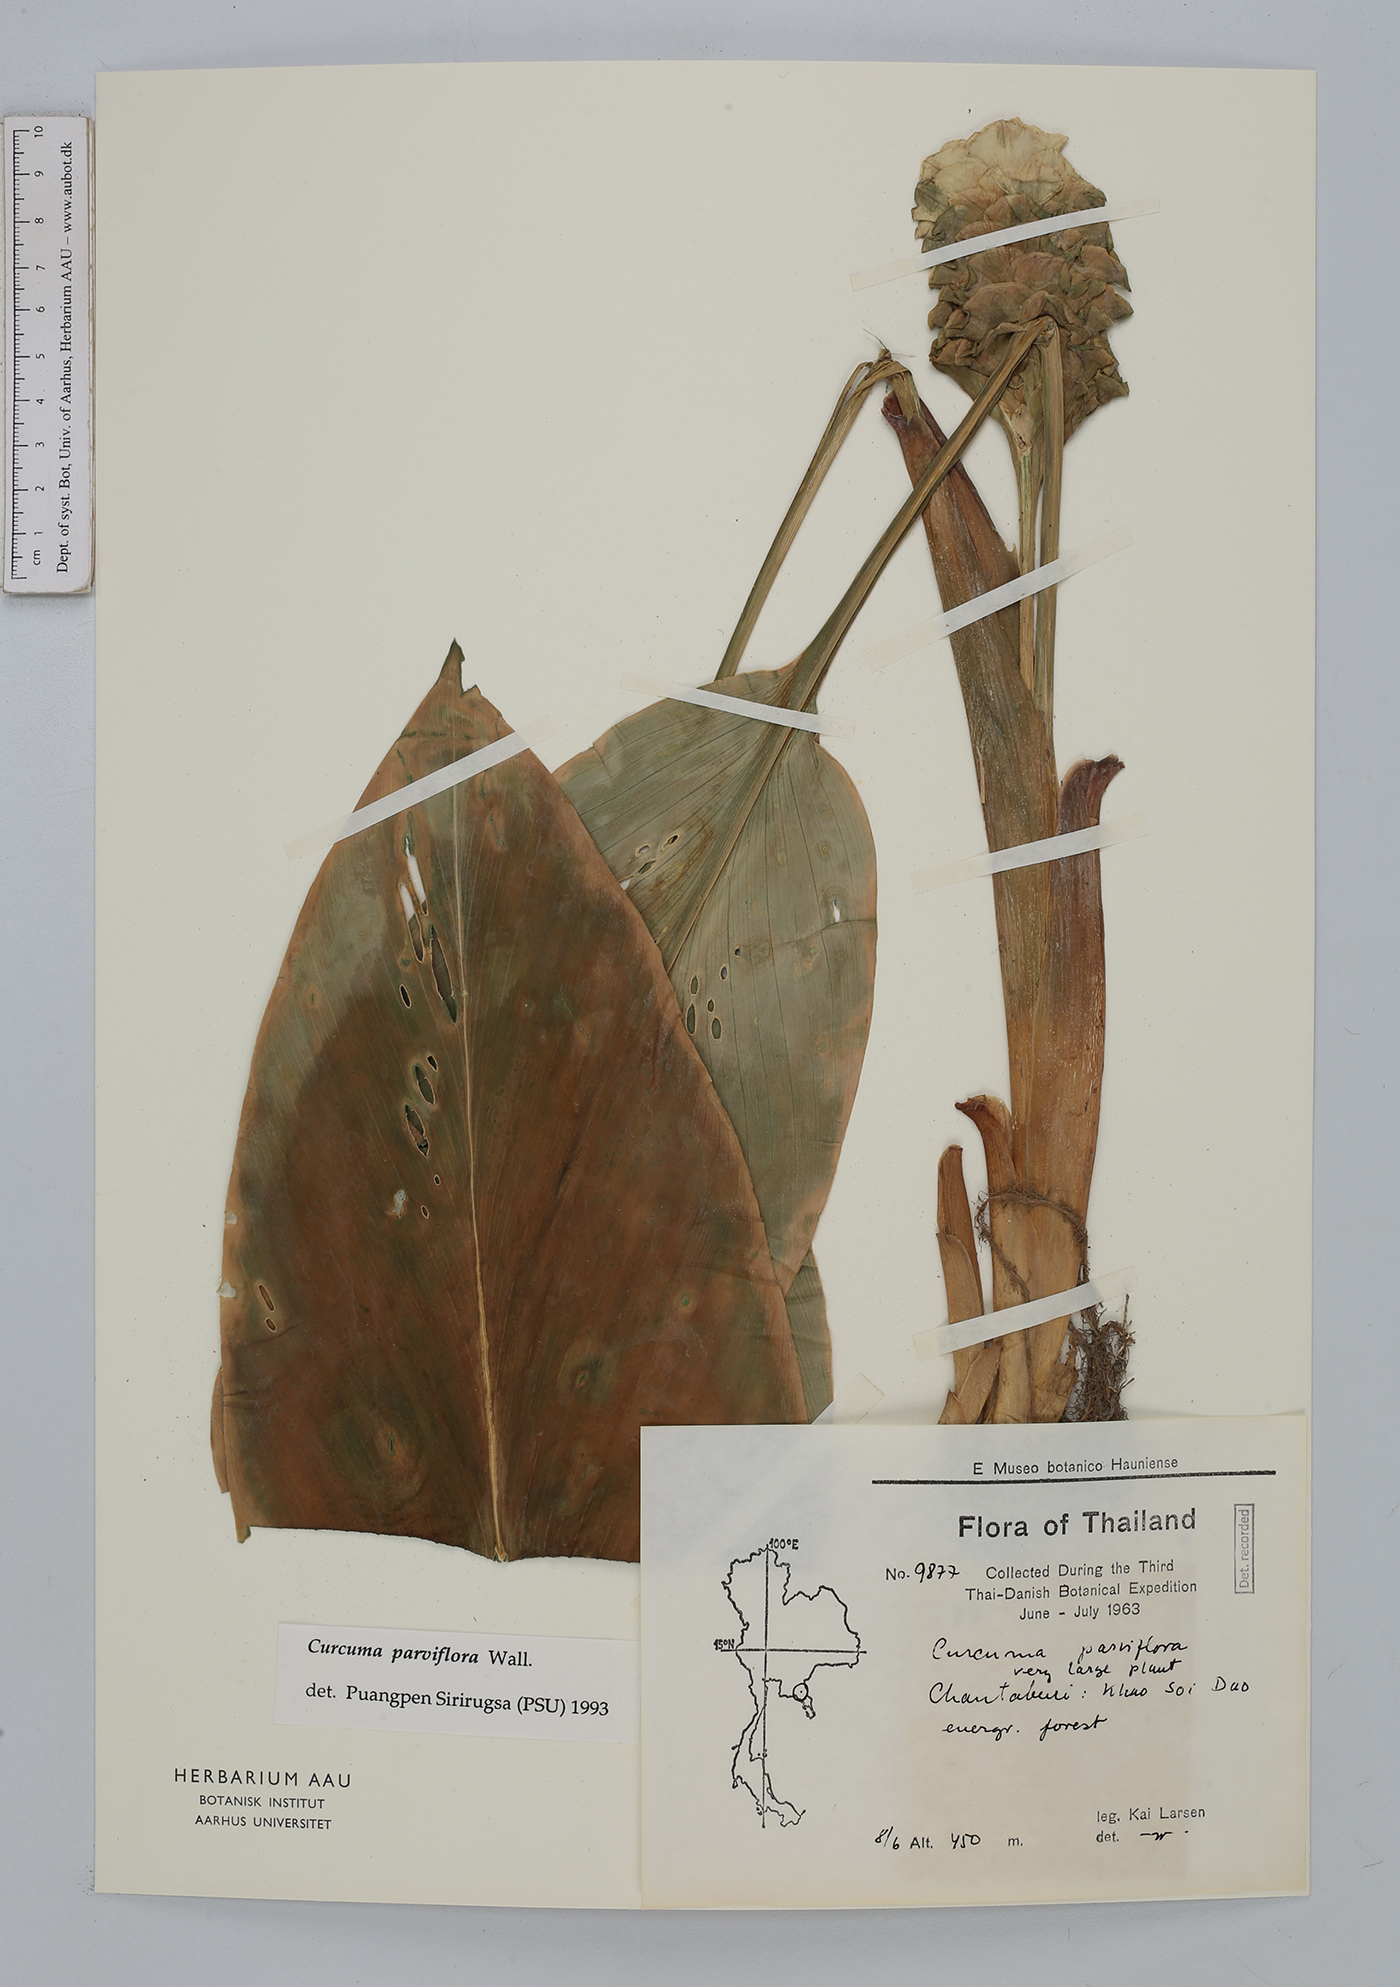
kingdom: Plantae
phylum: Tracheophyta
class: Liliopsida
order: Zingiberales
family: Zingiberaceae
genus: Curcuma
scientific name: Curcuma parviflora
